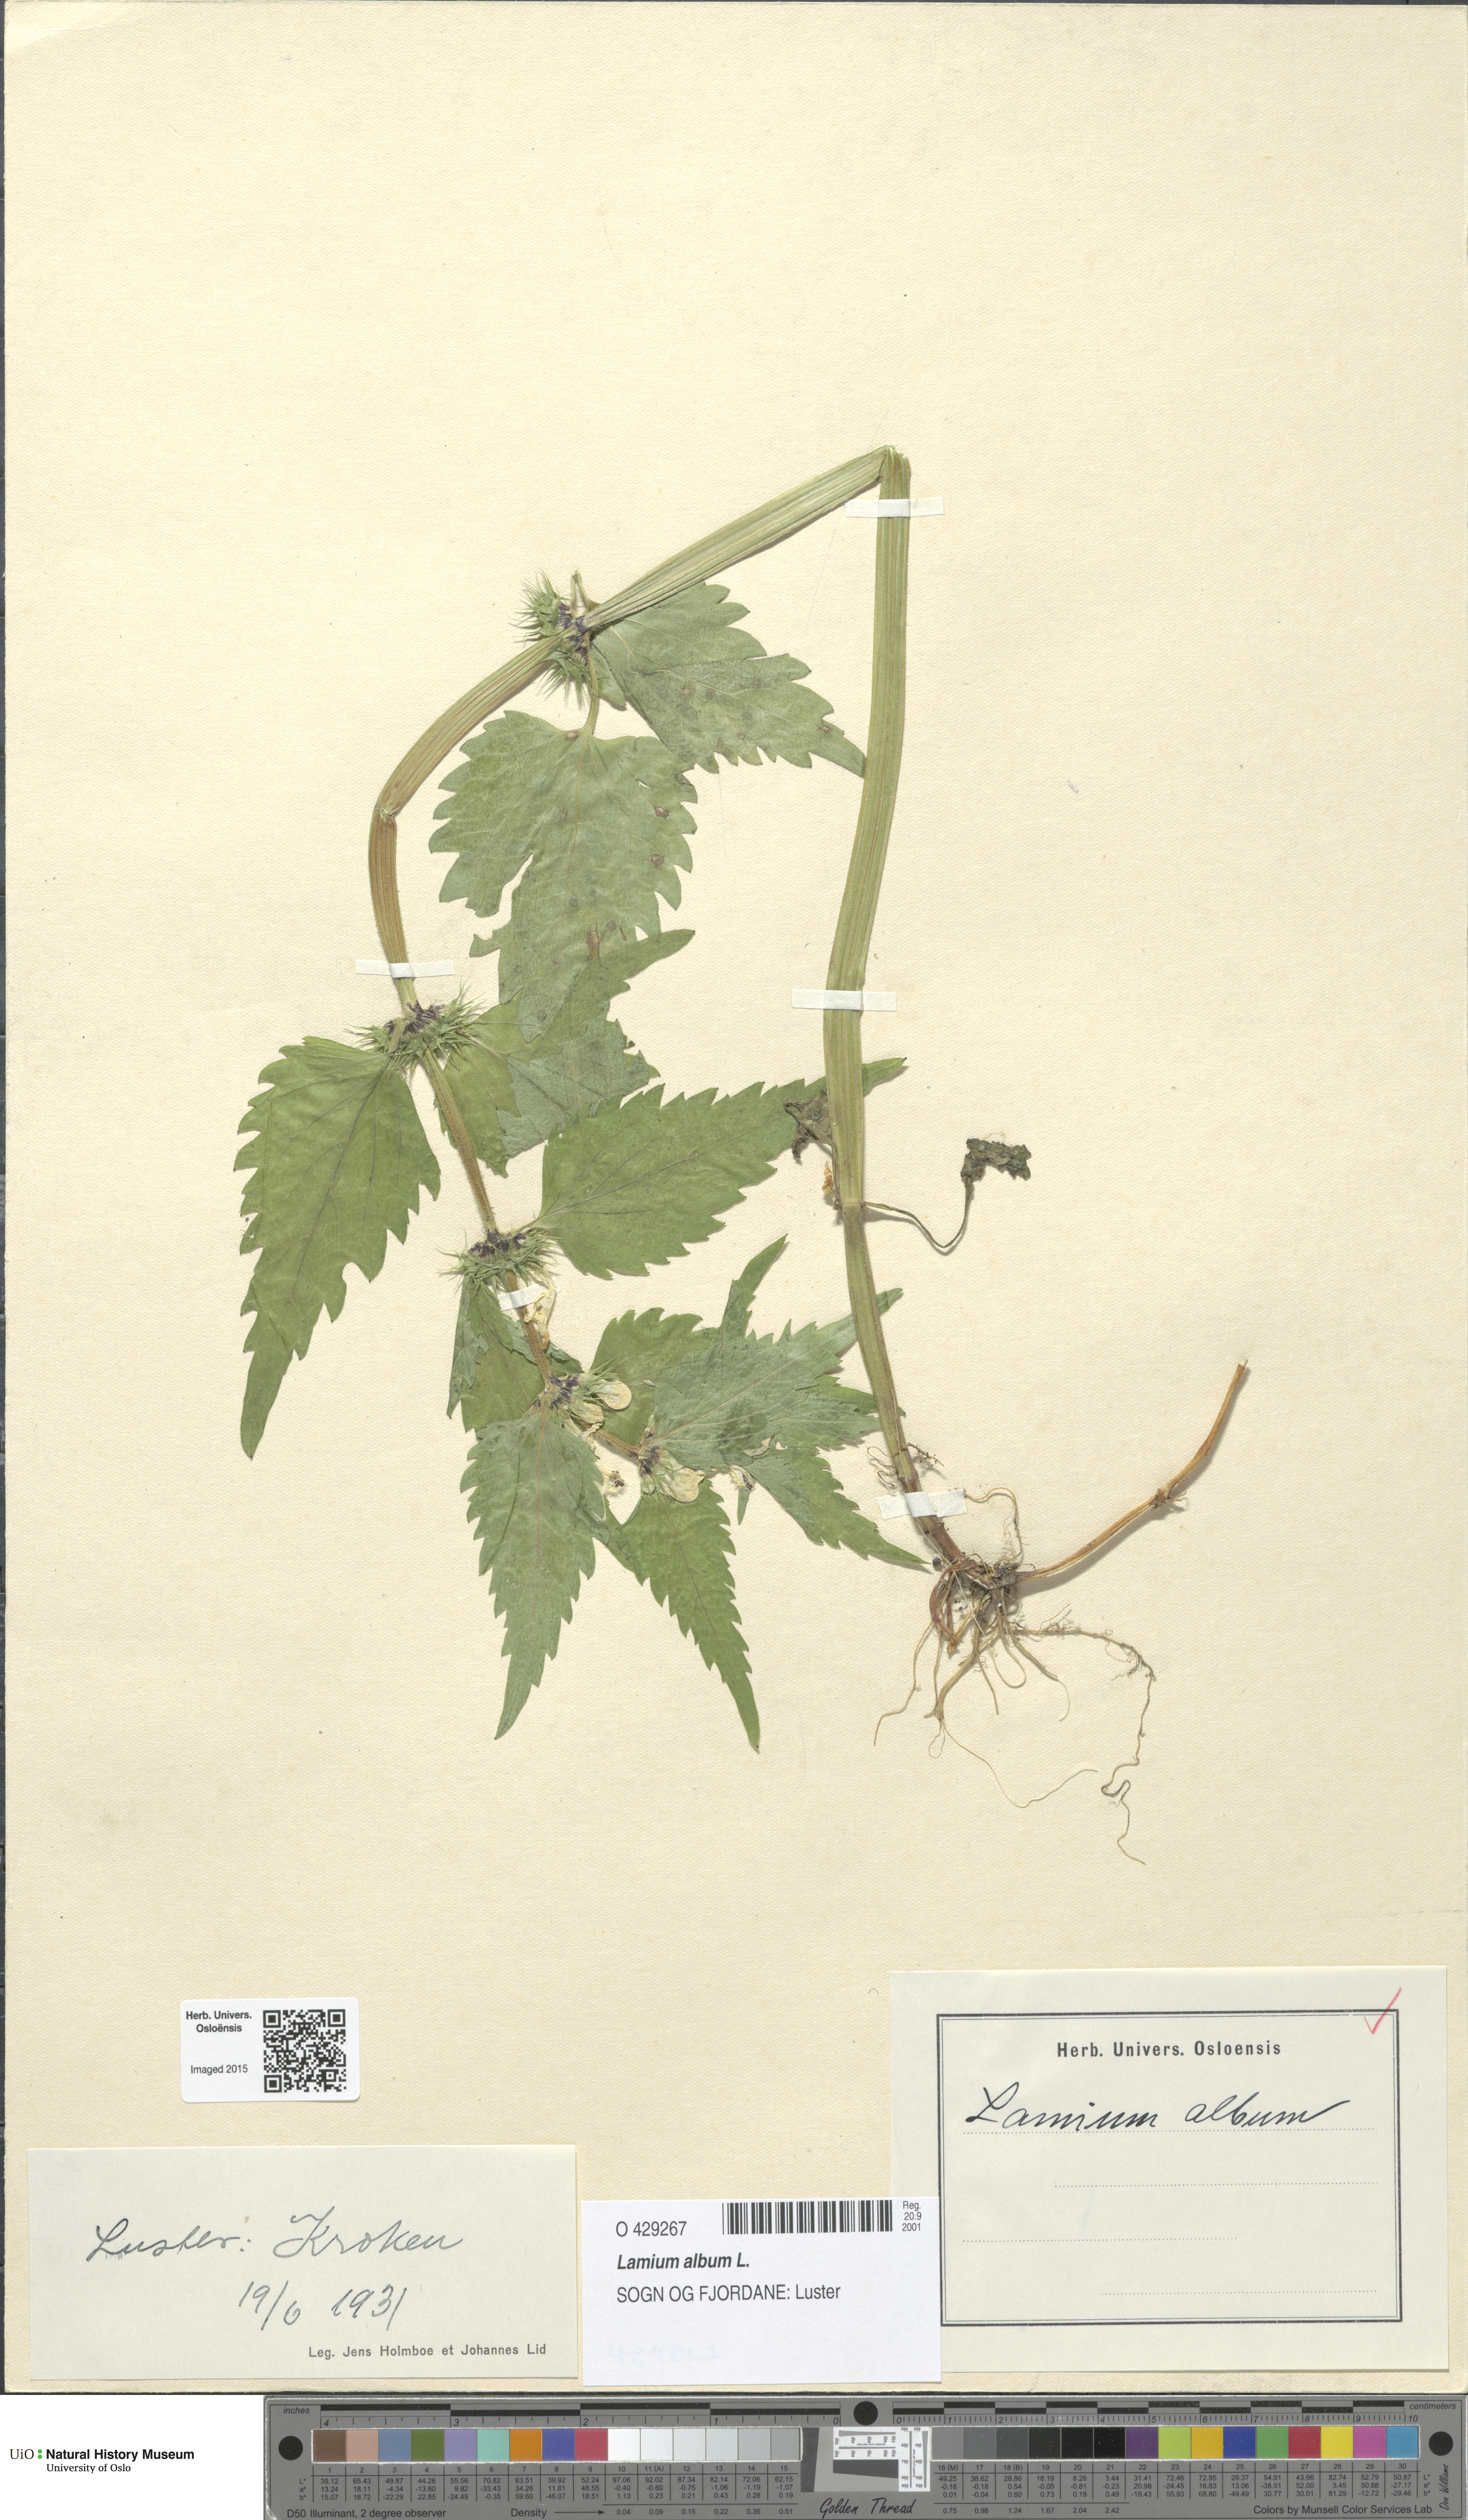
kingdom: Plantae
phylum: Tracheophyta
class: Magnoliopsida
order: Lamiales
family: Lamiaceae
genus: Lamium
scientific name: Lamium album
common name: White dead-nettle
